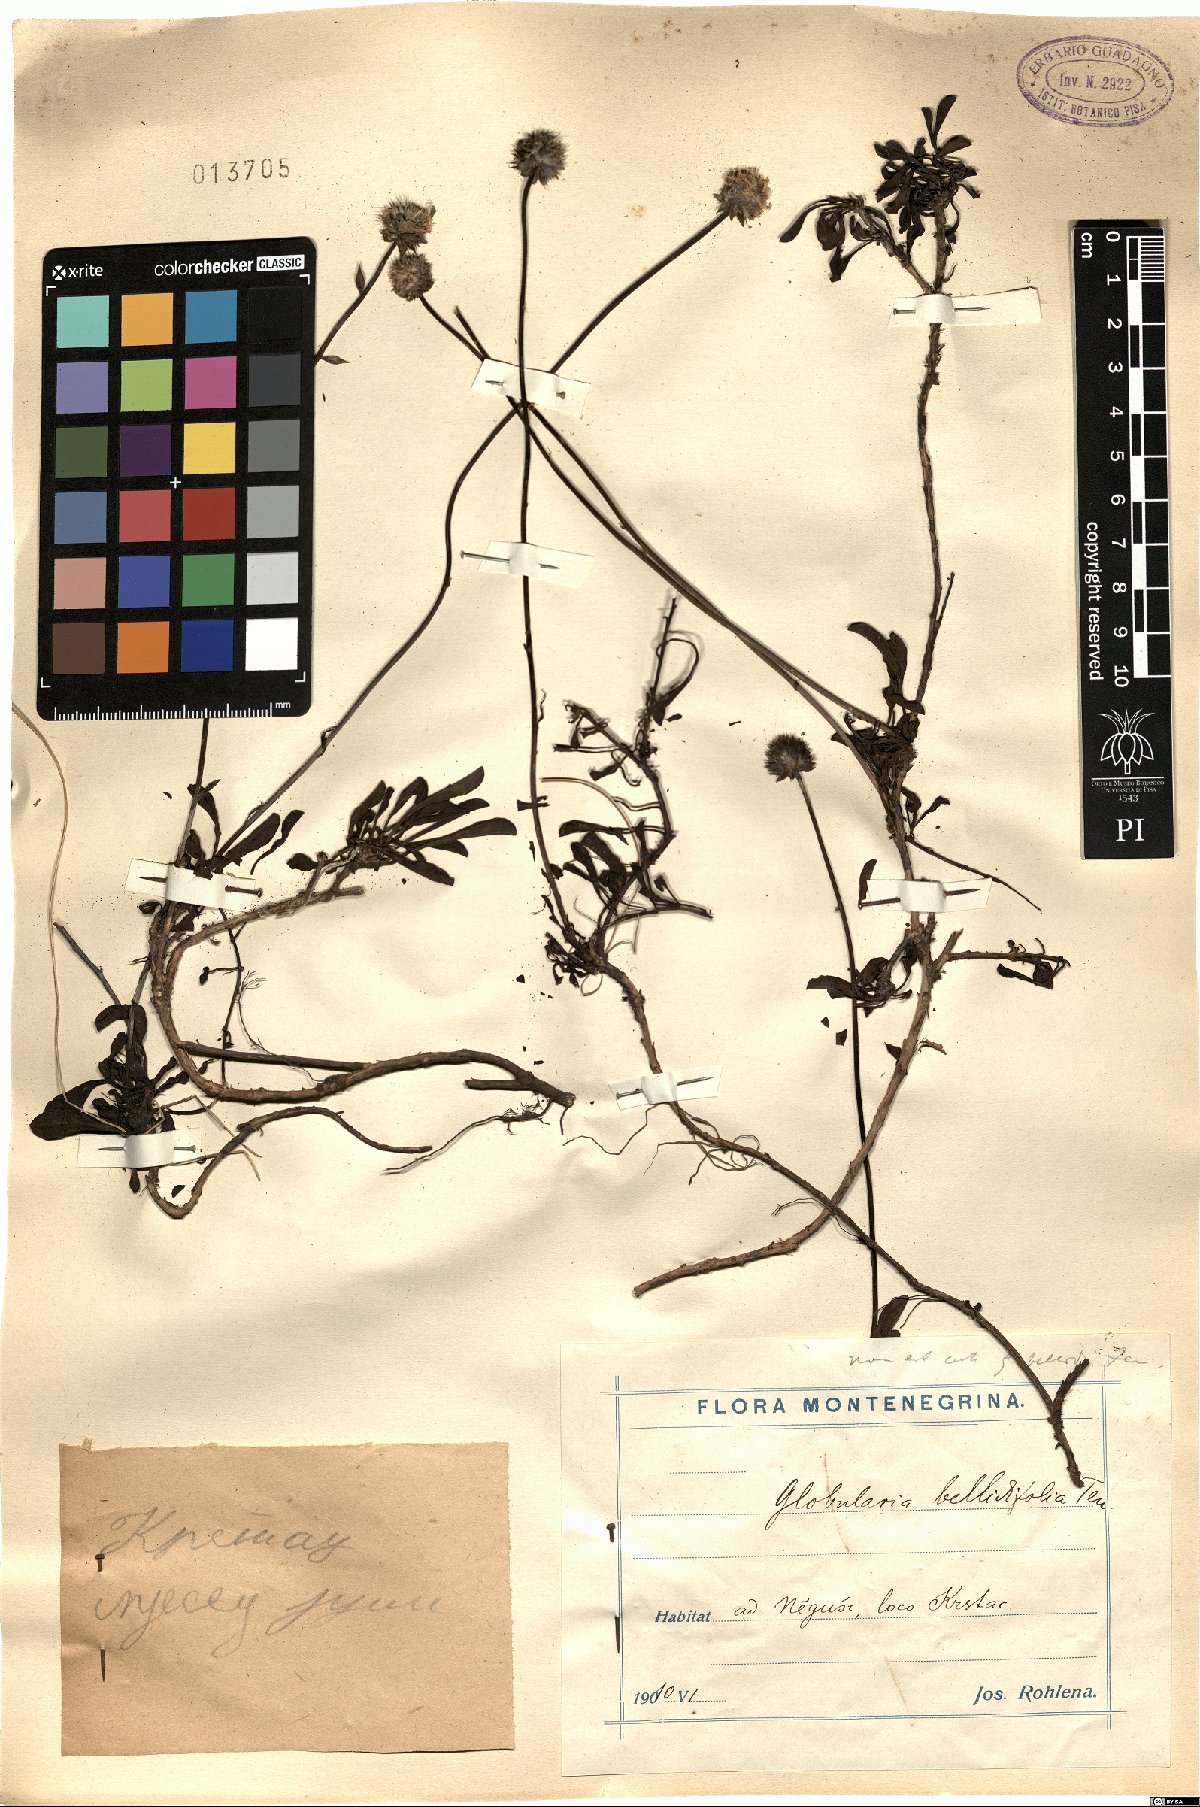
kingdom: Plantae
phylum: Tracheophyta
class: Magnoliopsida
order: Lamiales
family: Plantaginaceae
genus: Globularia
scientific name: Globularia meridionalis
